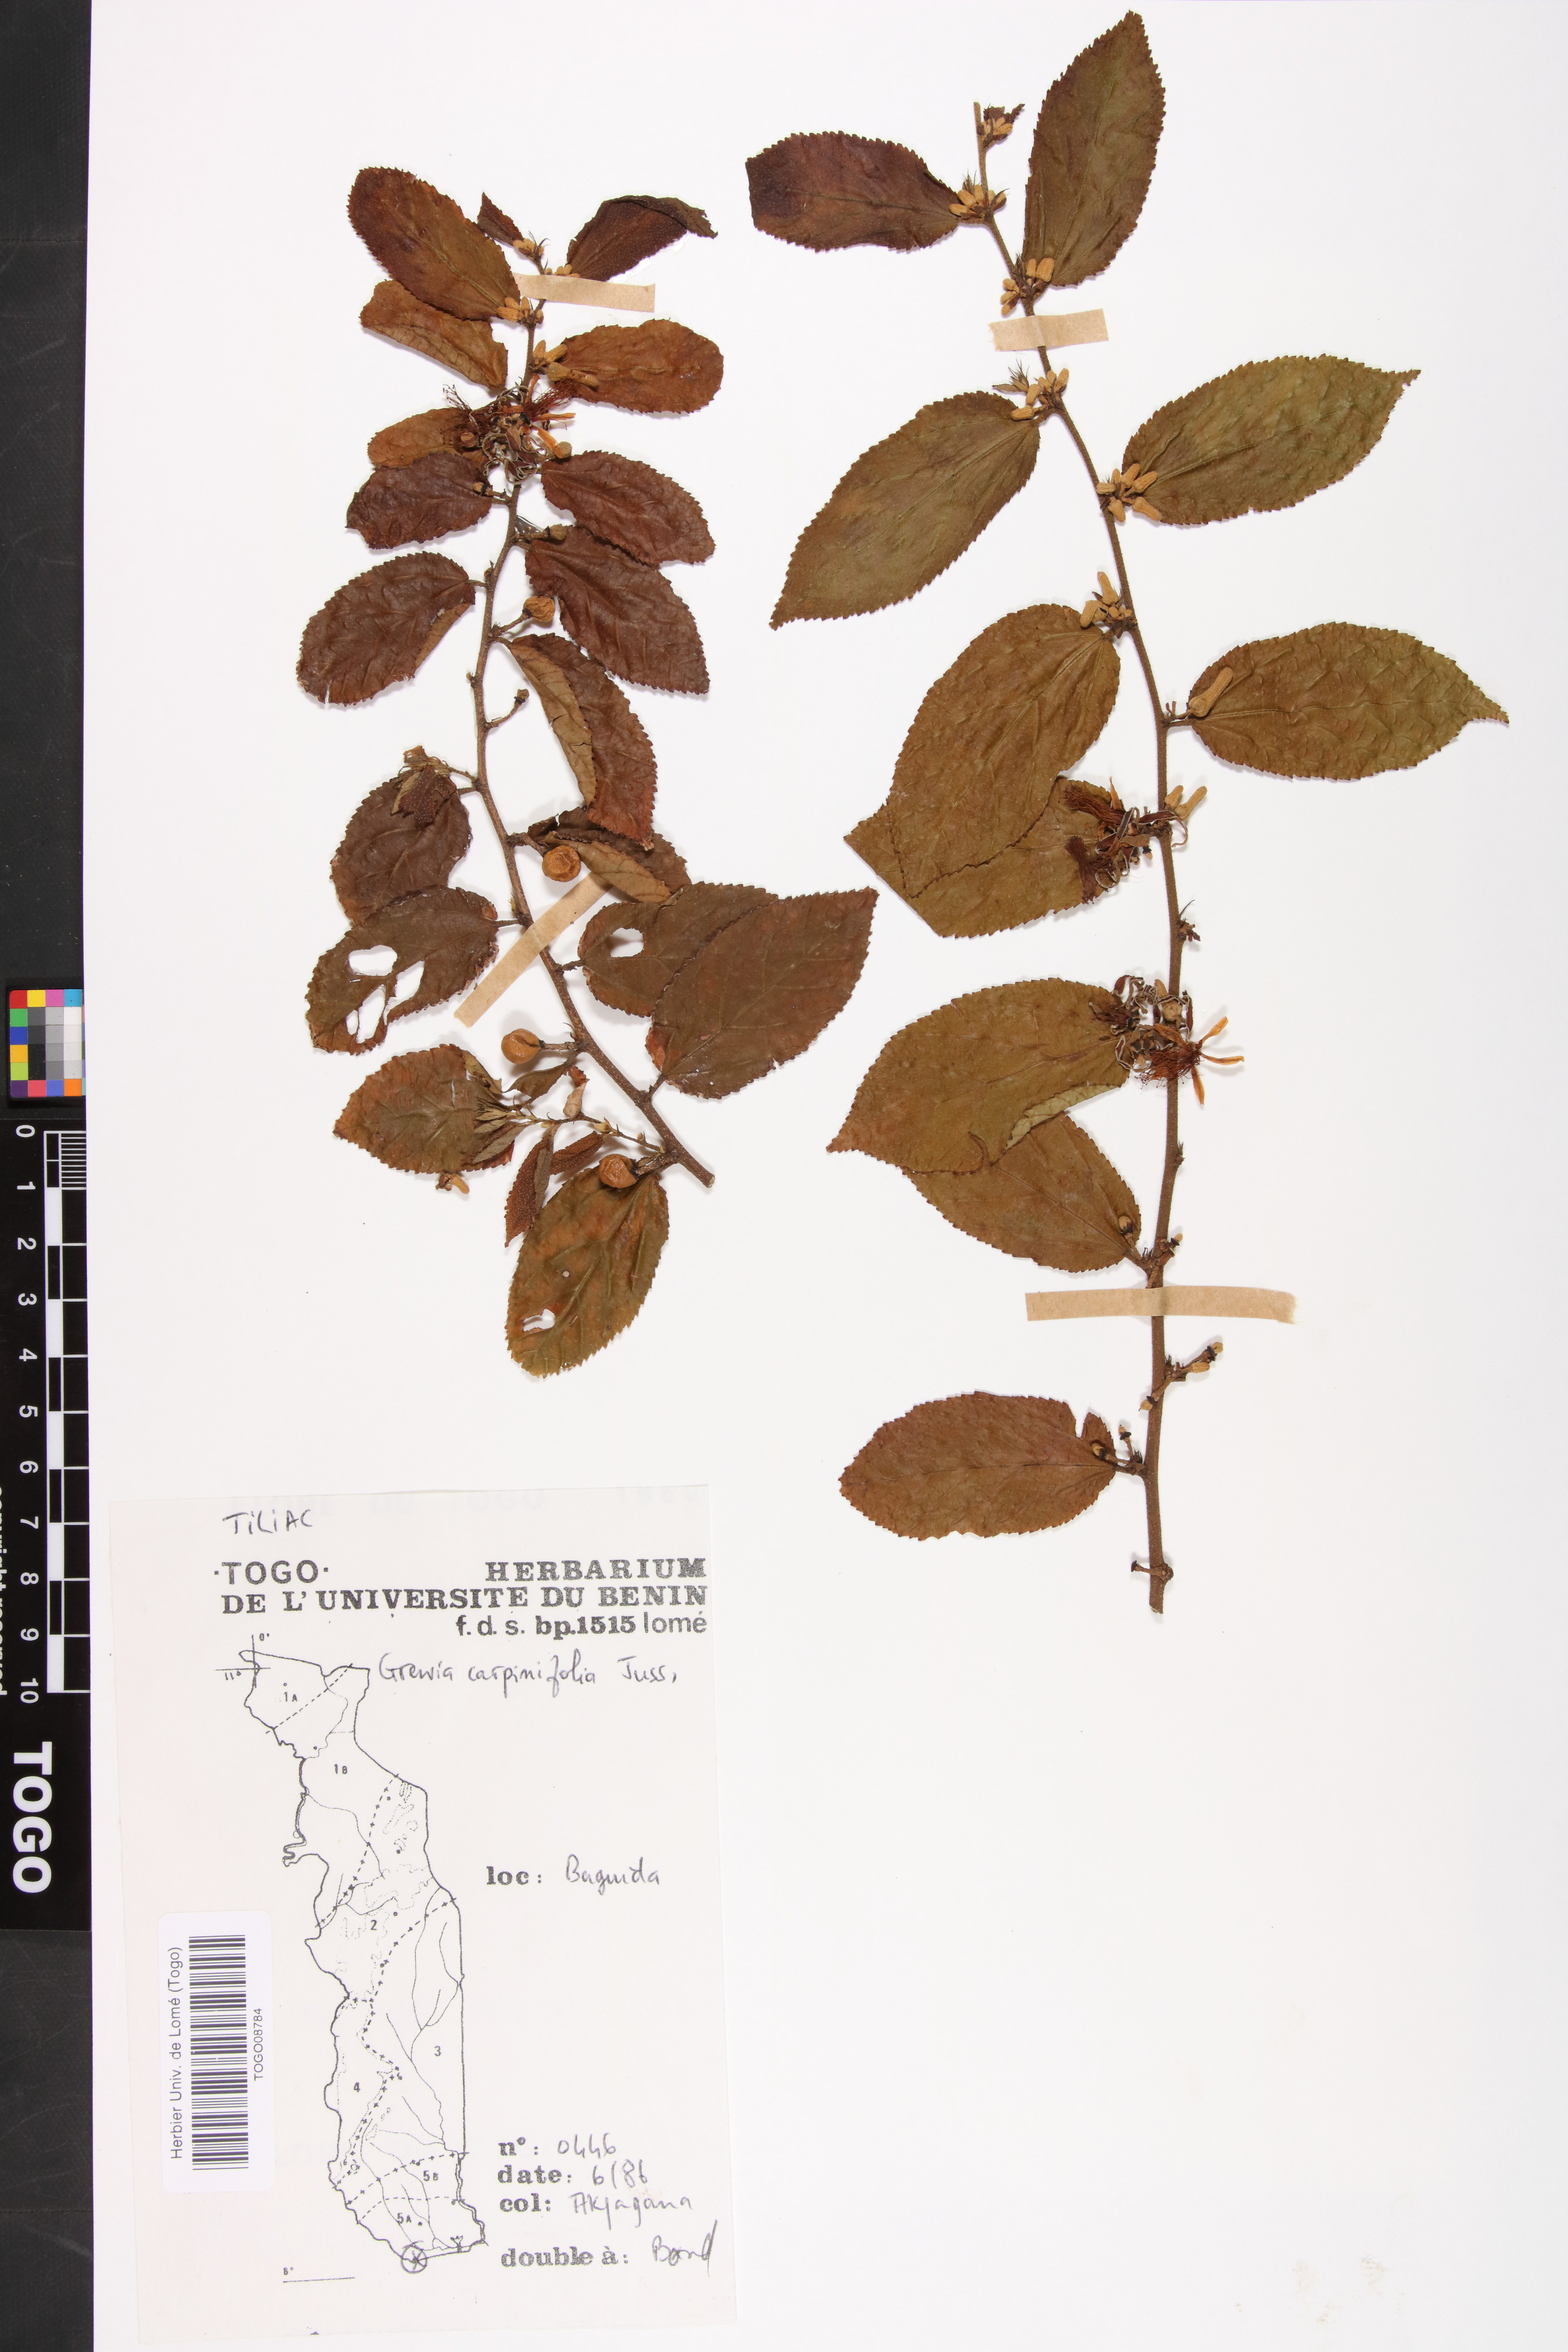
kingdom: Plantae
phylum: Tracheophyta
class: Magnoliopsida
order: Malvales
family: Malvaceae
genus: Grewia
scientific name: Grewia carpinifolia
